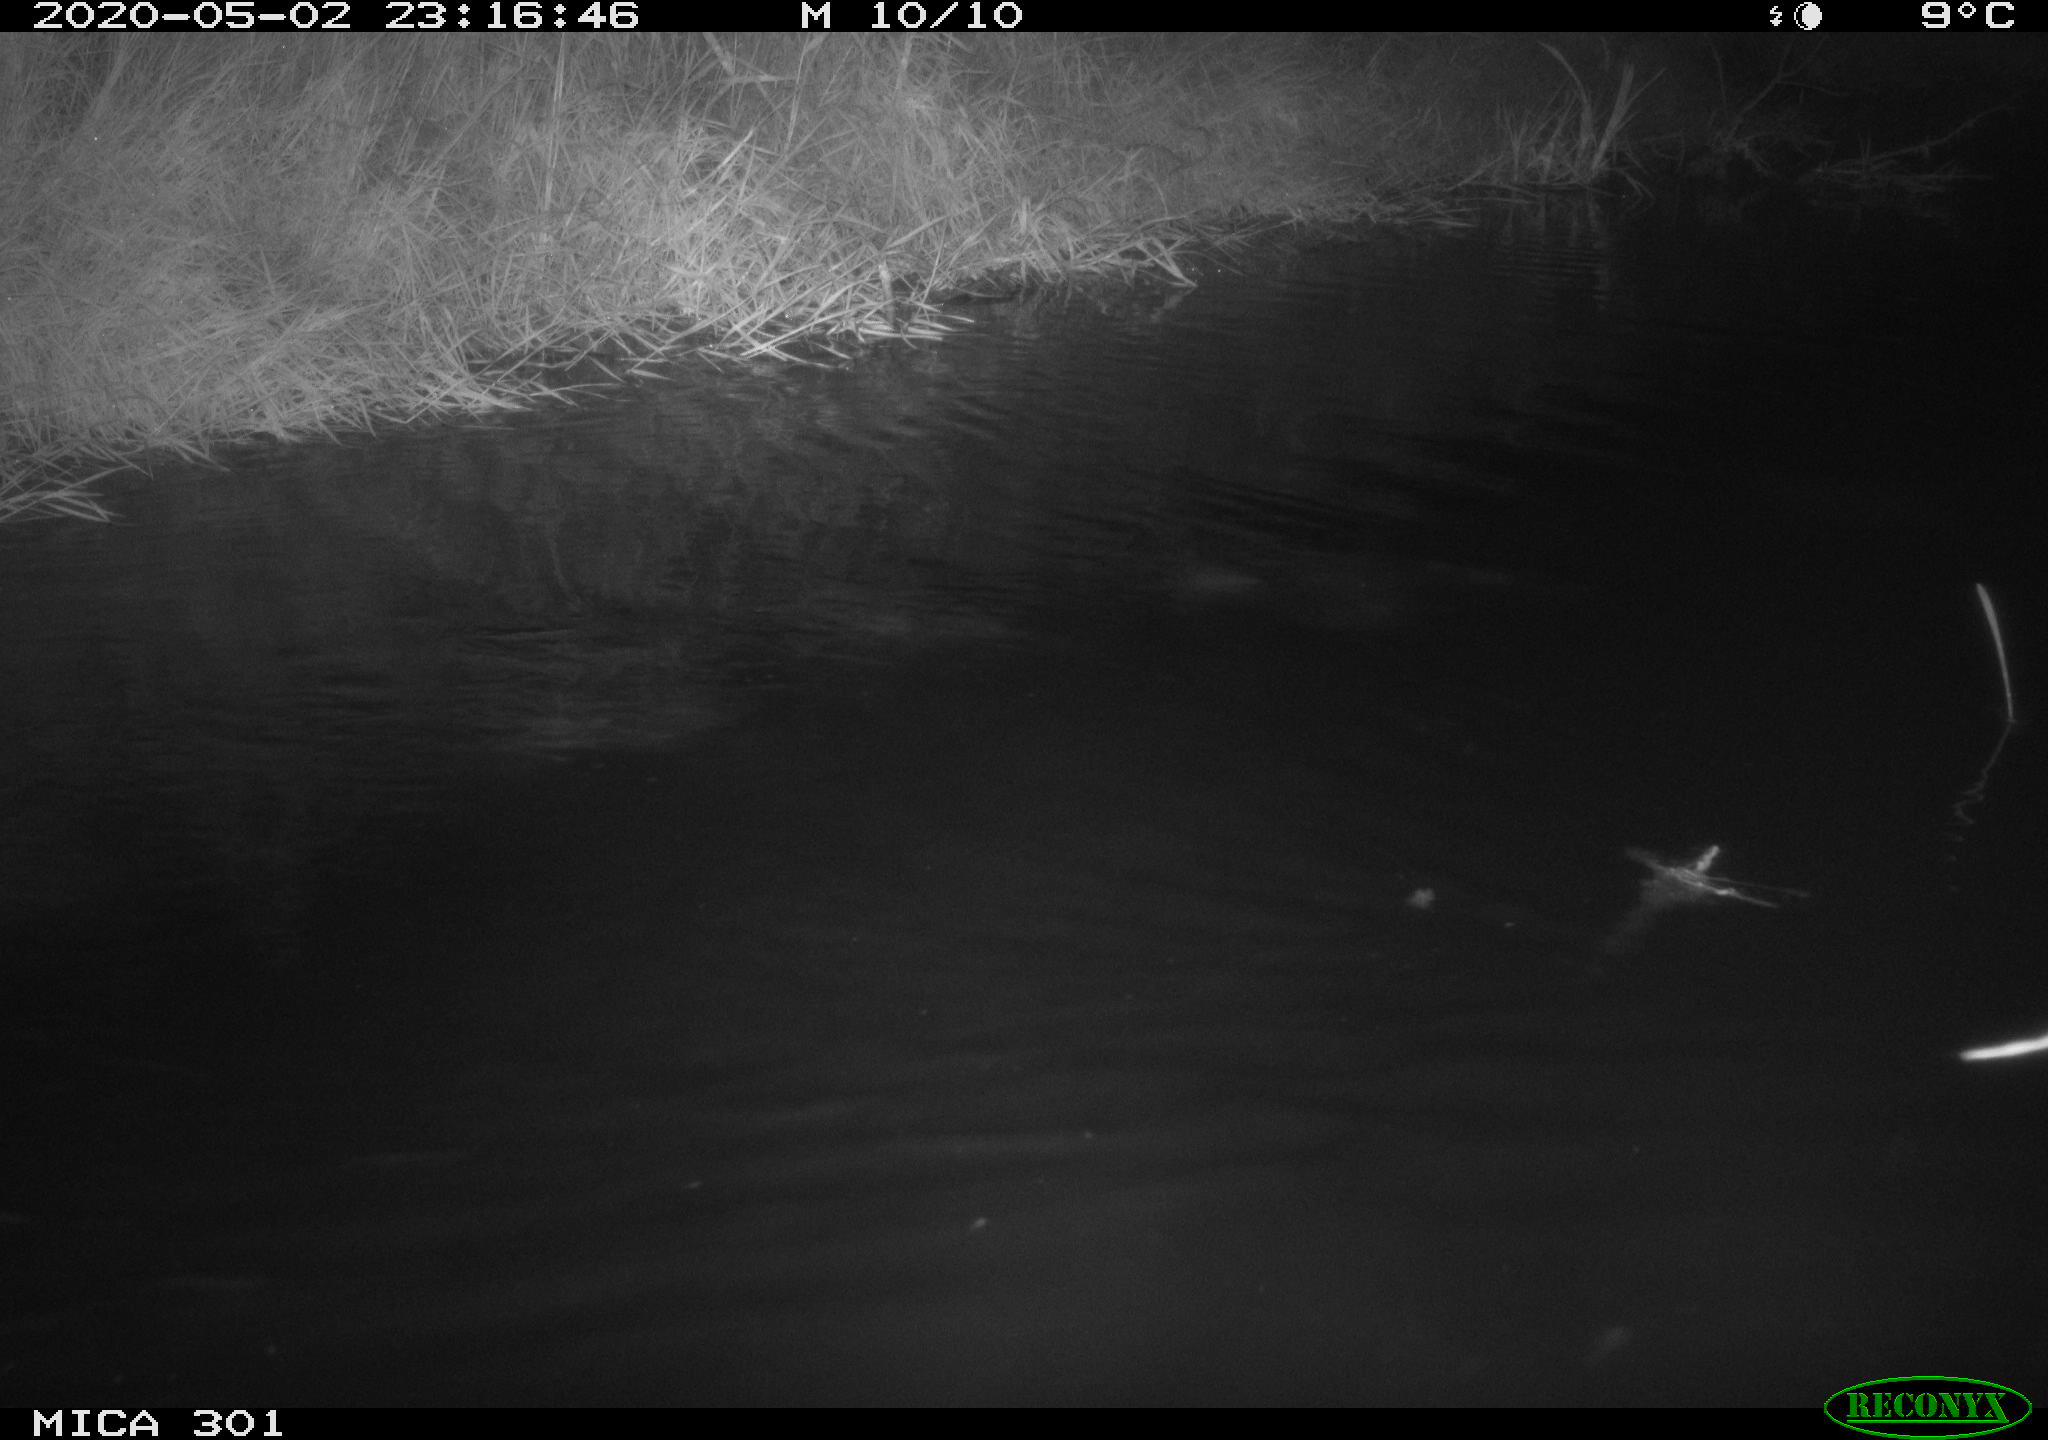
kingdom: Animalia
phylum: Chordata
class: Mammalia
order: Rodentia
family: Castoridae
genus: Castor
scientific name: Castor fiber
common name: Eurasian beaver
